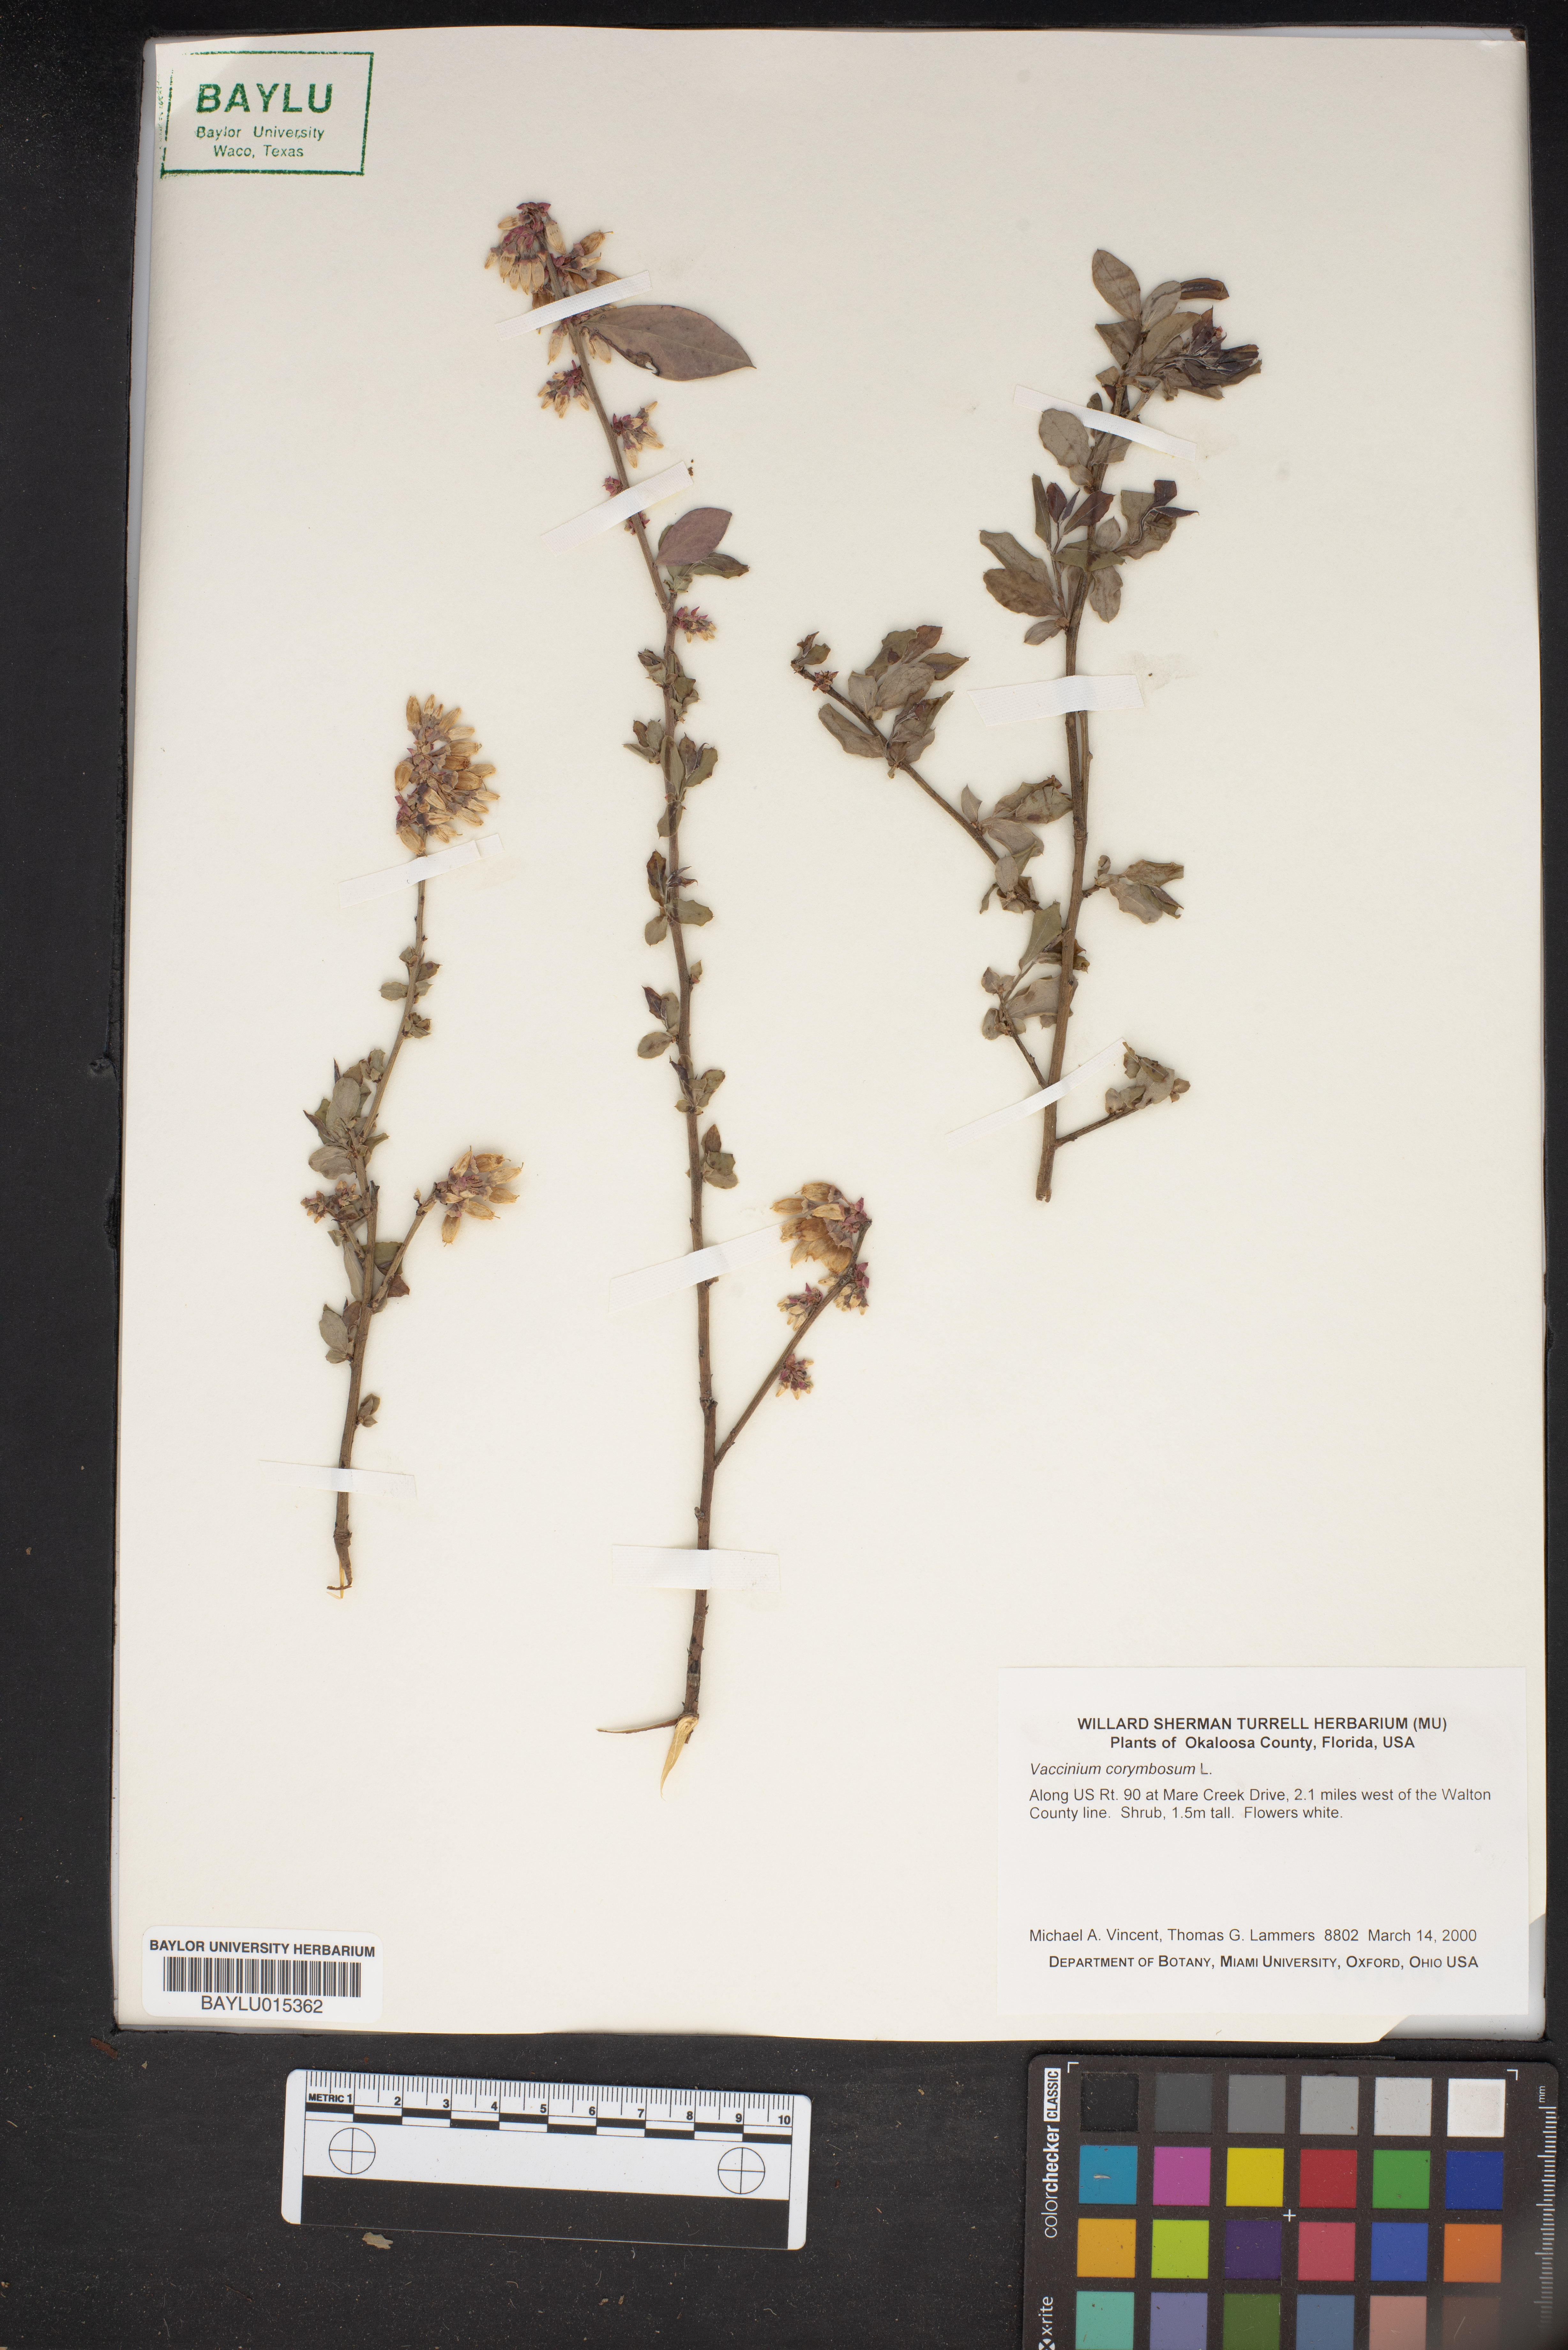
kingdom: Plantae
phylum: Tracheophyta
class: Magnoliopsida
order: Ericales
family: Ericaceae
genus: Vaccinium
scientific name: Vaccinium corymbosum
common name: Blueberry
